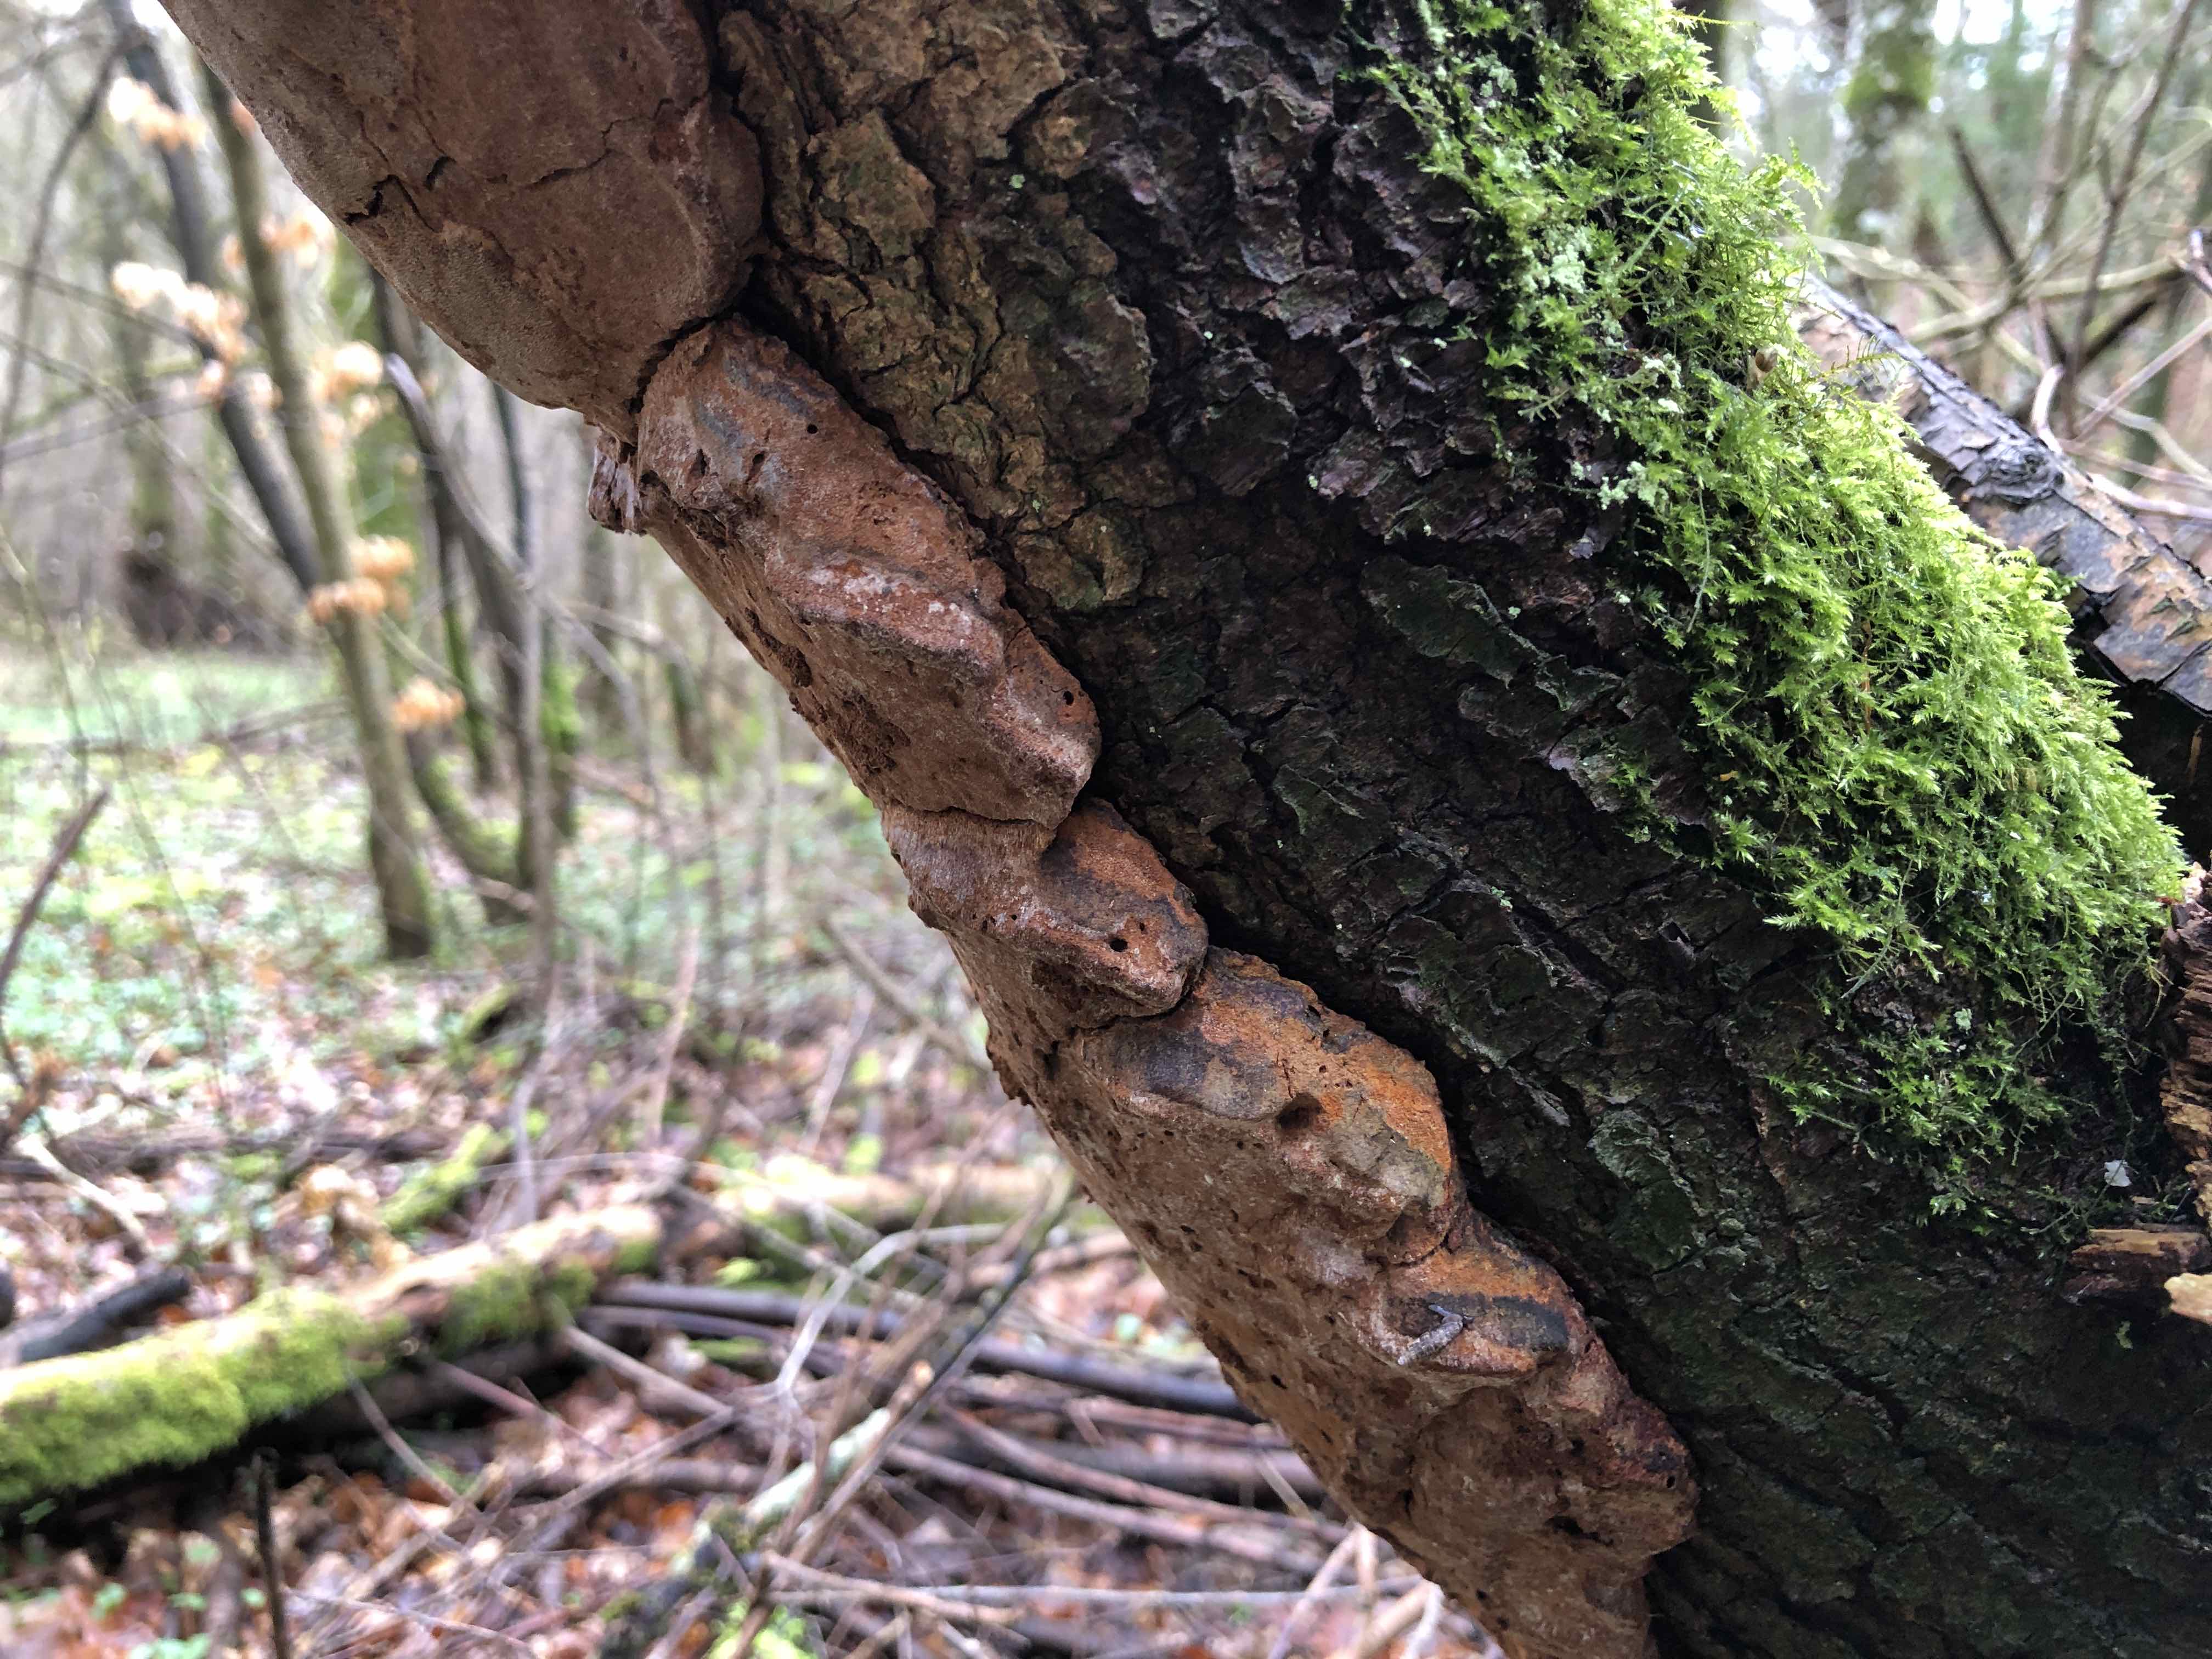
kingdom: Fungi
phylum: Basidiomycota
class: Agaricomycetes
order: Hymenochaetales
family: Hymenochaetaceae
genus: Phellinus
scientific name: Phellinus pomaceus
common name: blomme-ildporesvamp
